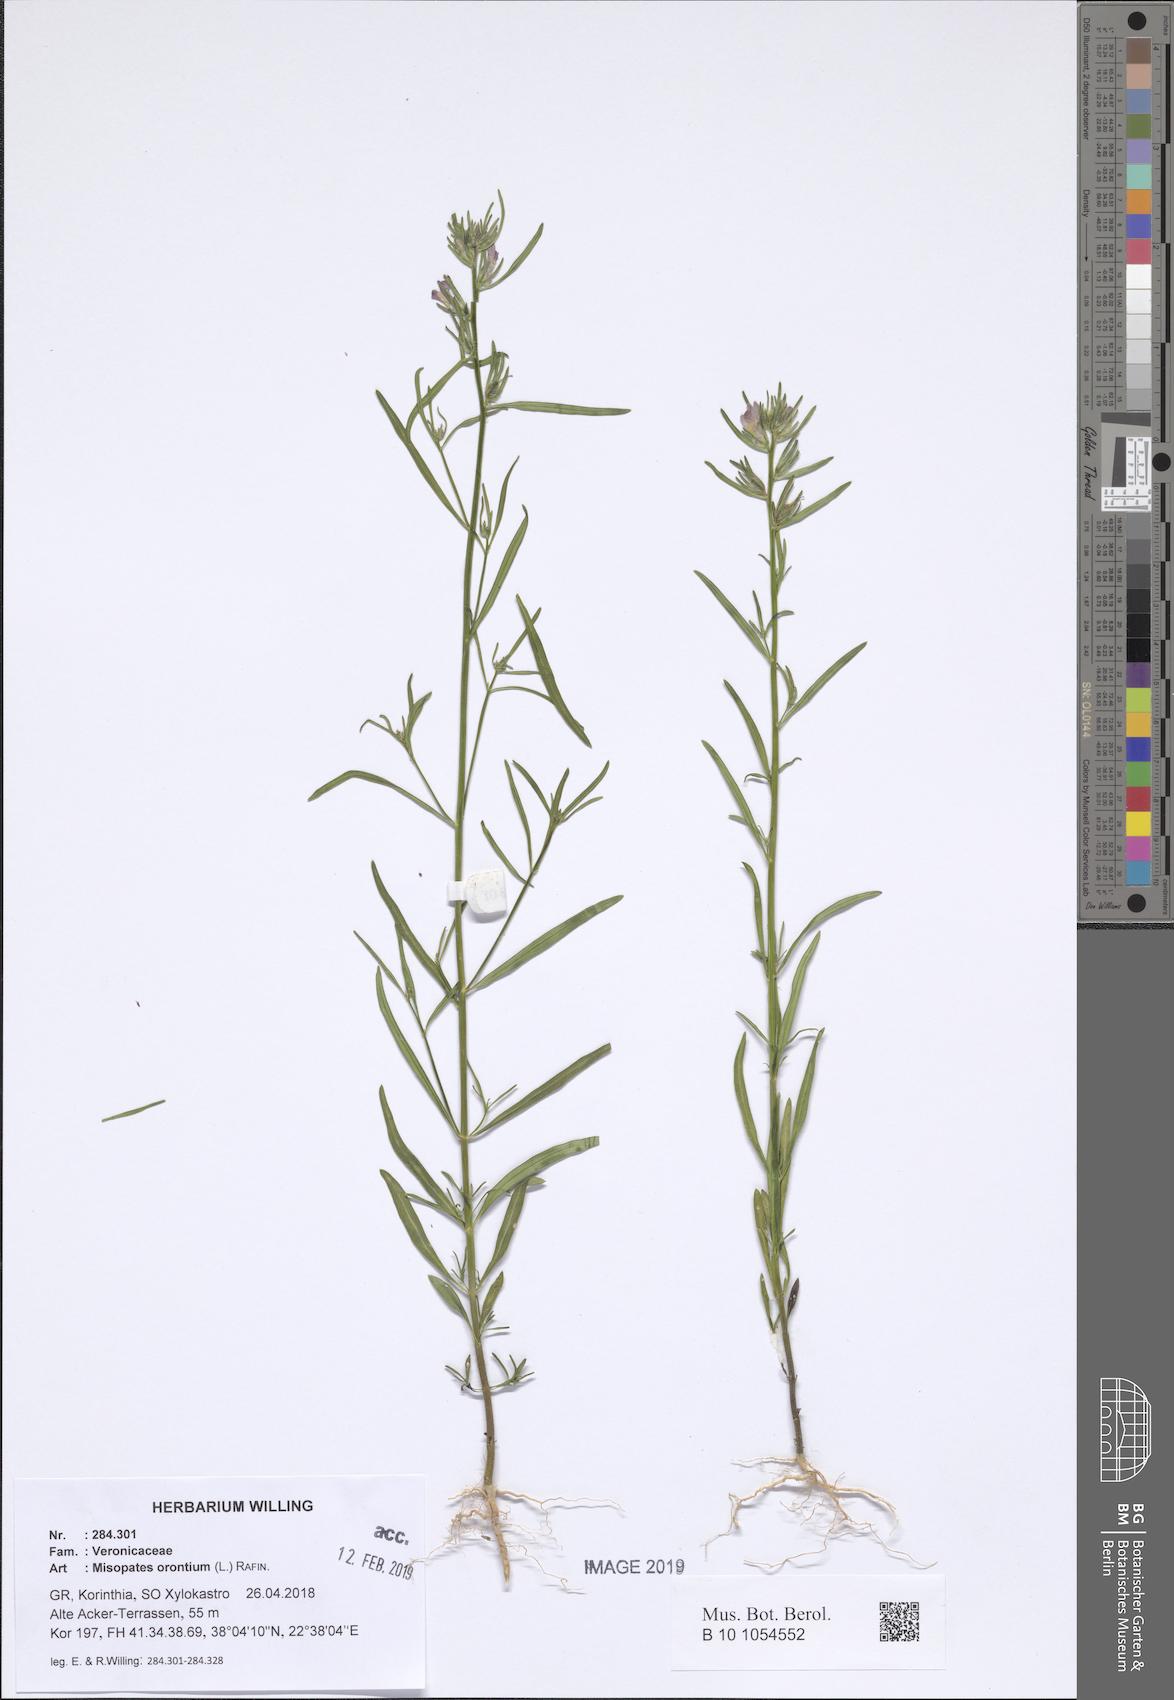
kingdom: Plantae
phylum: Tracheophyta
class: Magnoliopsida
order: Lamiales
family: Plantaginaceae
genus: Misopates
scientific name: Misopates orontium
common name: Weasel's-snout
